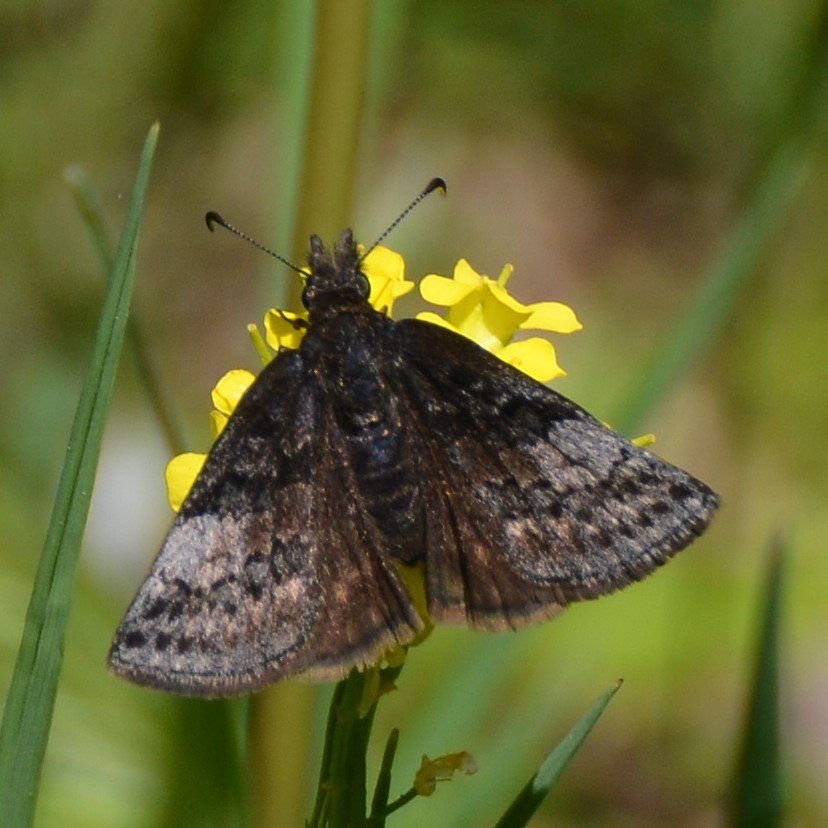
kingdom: Animalia
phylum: Arthropoda
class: Insecta
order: Lepidoptera
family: Hesperiidae
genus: Erynnis
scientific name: Erynnis icelus
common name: Dreamy Duskywing
